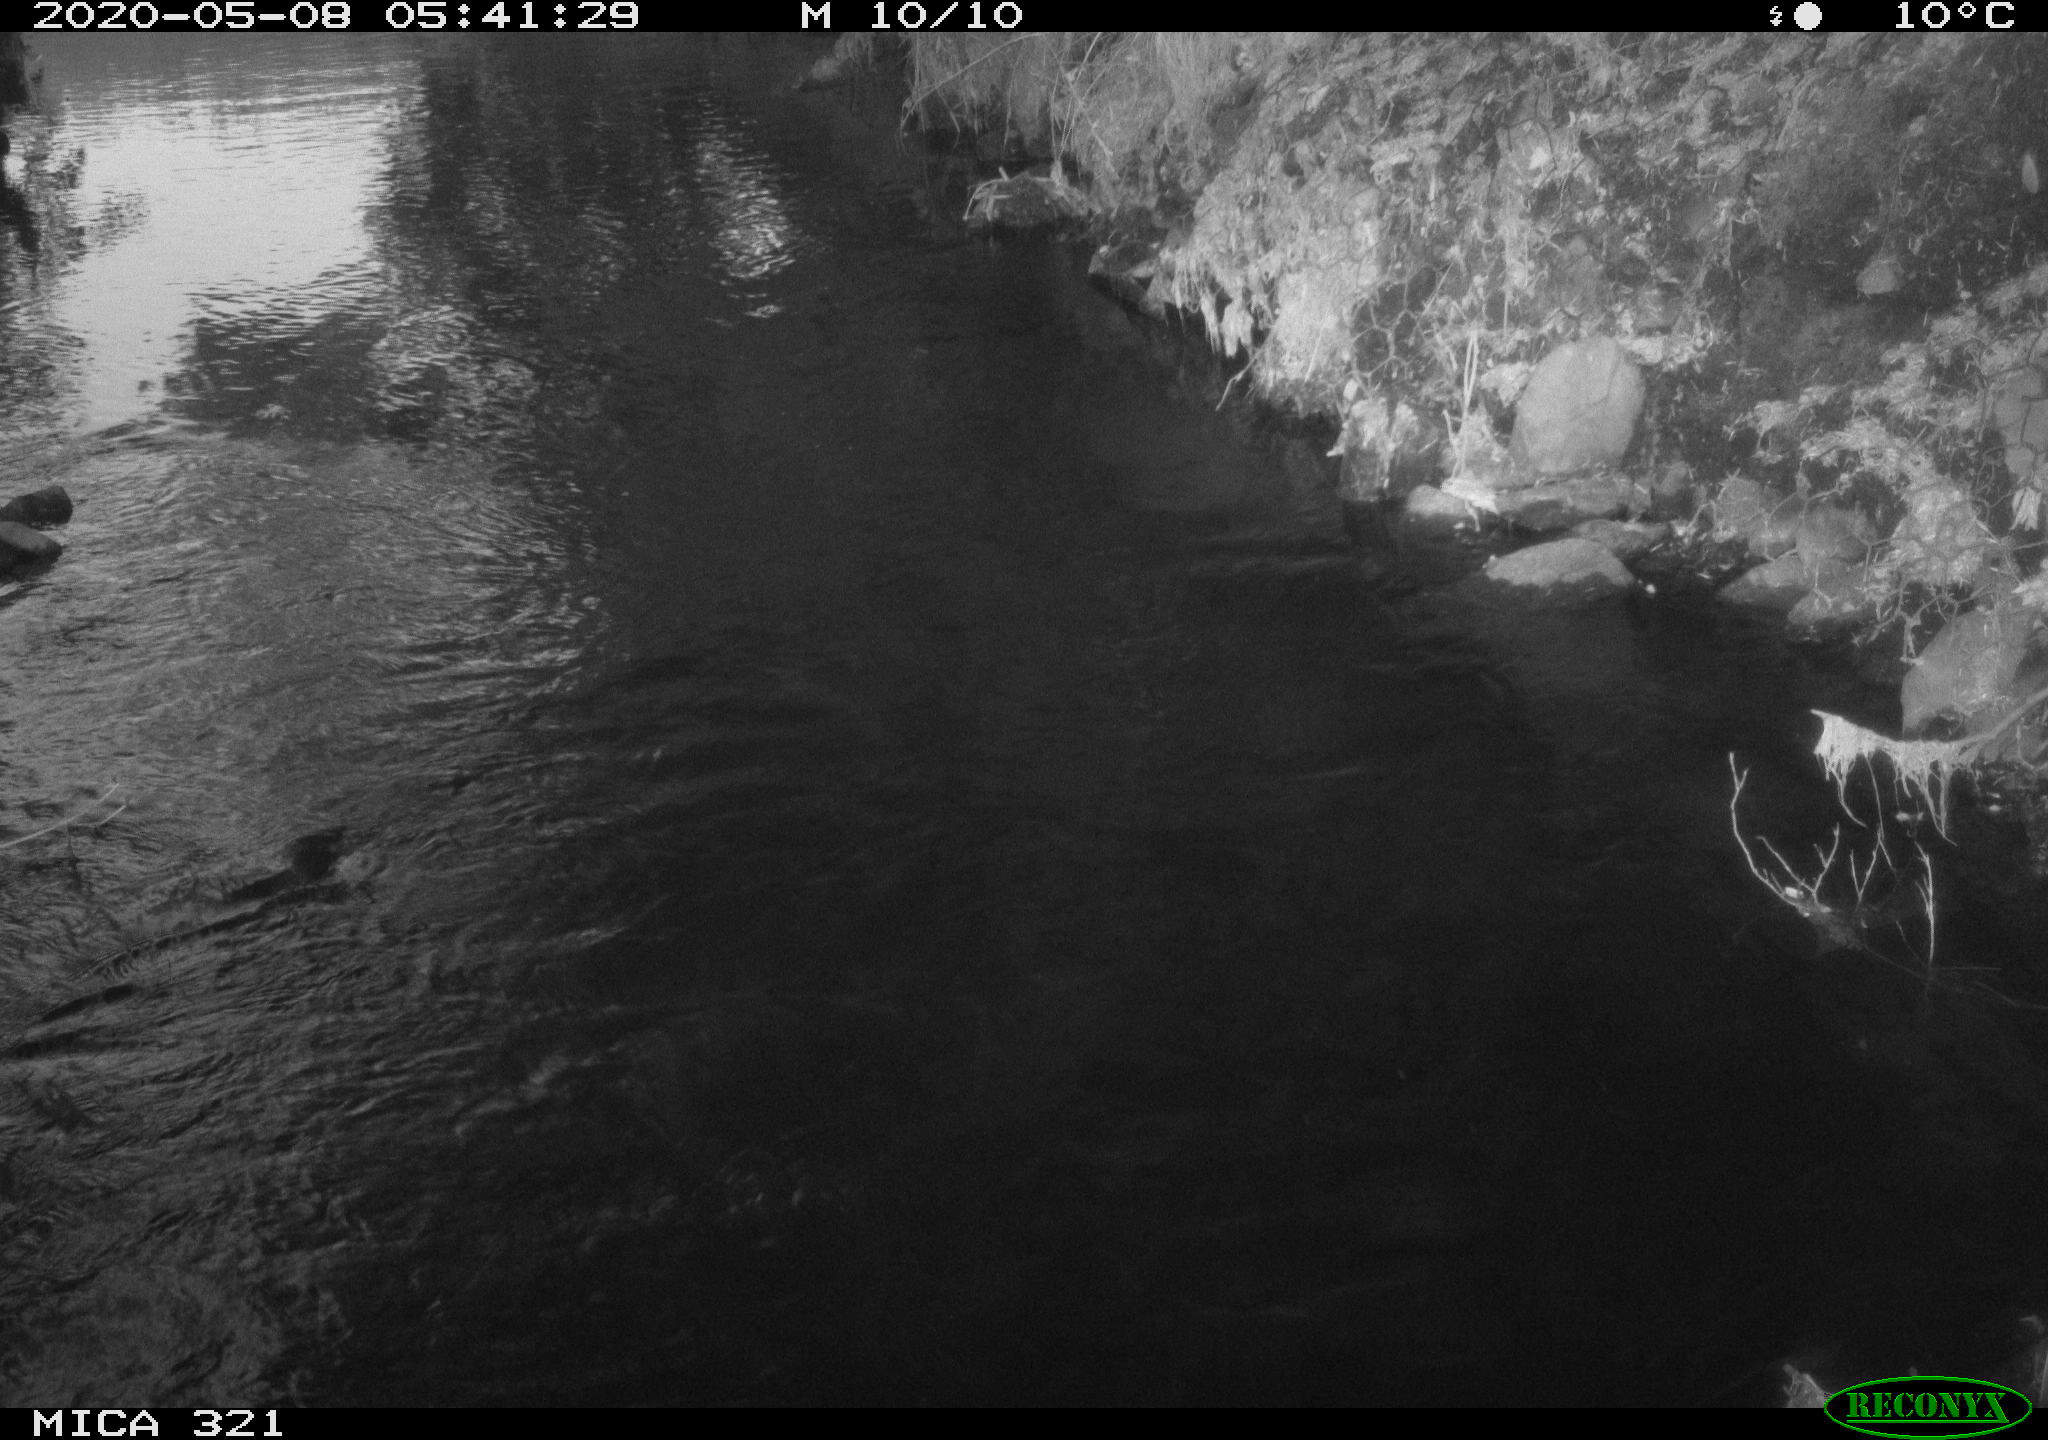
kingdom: Animalia
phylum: Chordata
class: Aves
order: Anseriformes
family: Anatidae
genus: Anas
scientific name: Anas platyrhynchos
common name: Mallard
